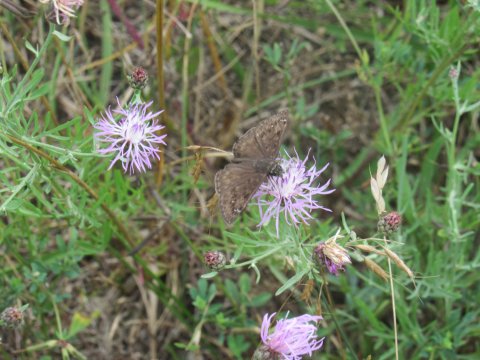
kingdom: Animalia
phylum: Arthropoda
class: Insecta
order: Lepidoptera
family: Hesperiidae
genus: Gesta
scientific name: Gesta
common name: Horace's Duskywing
